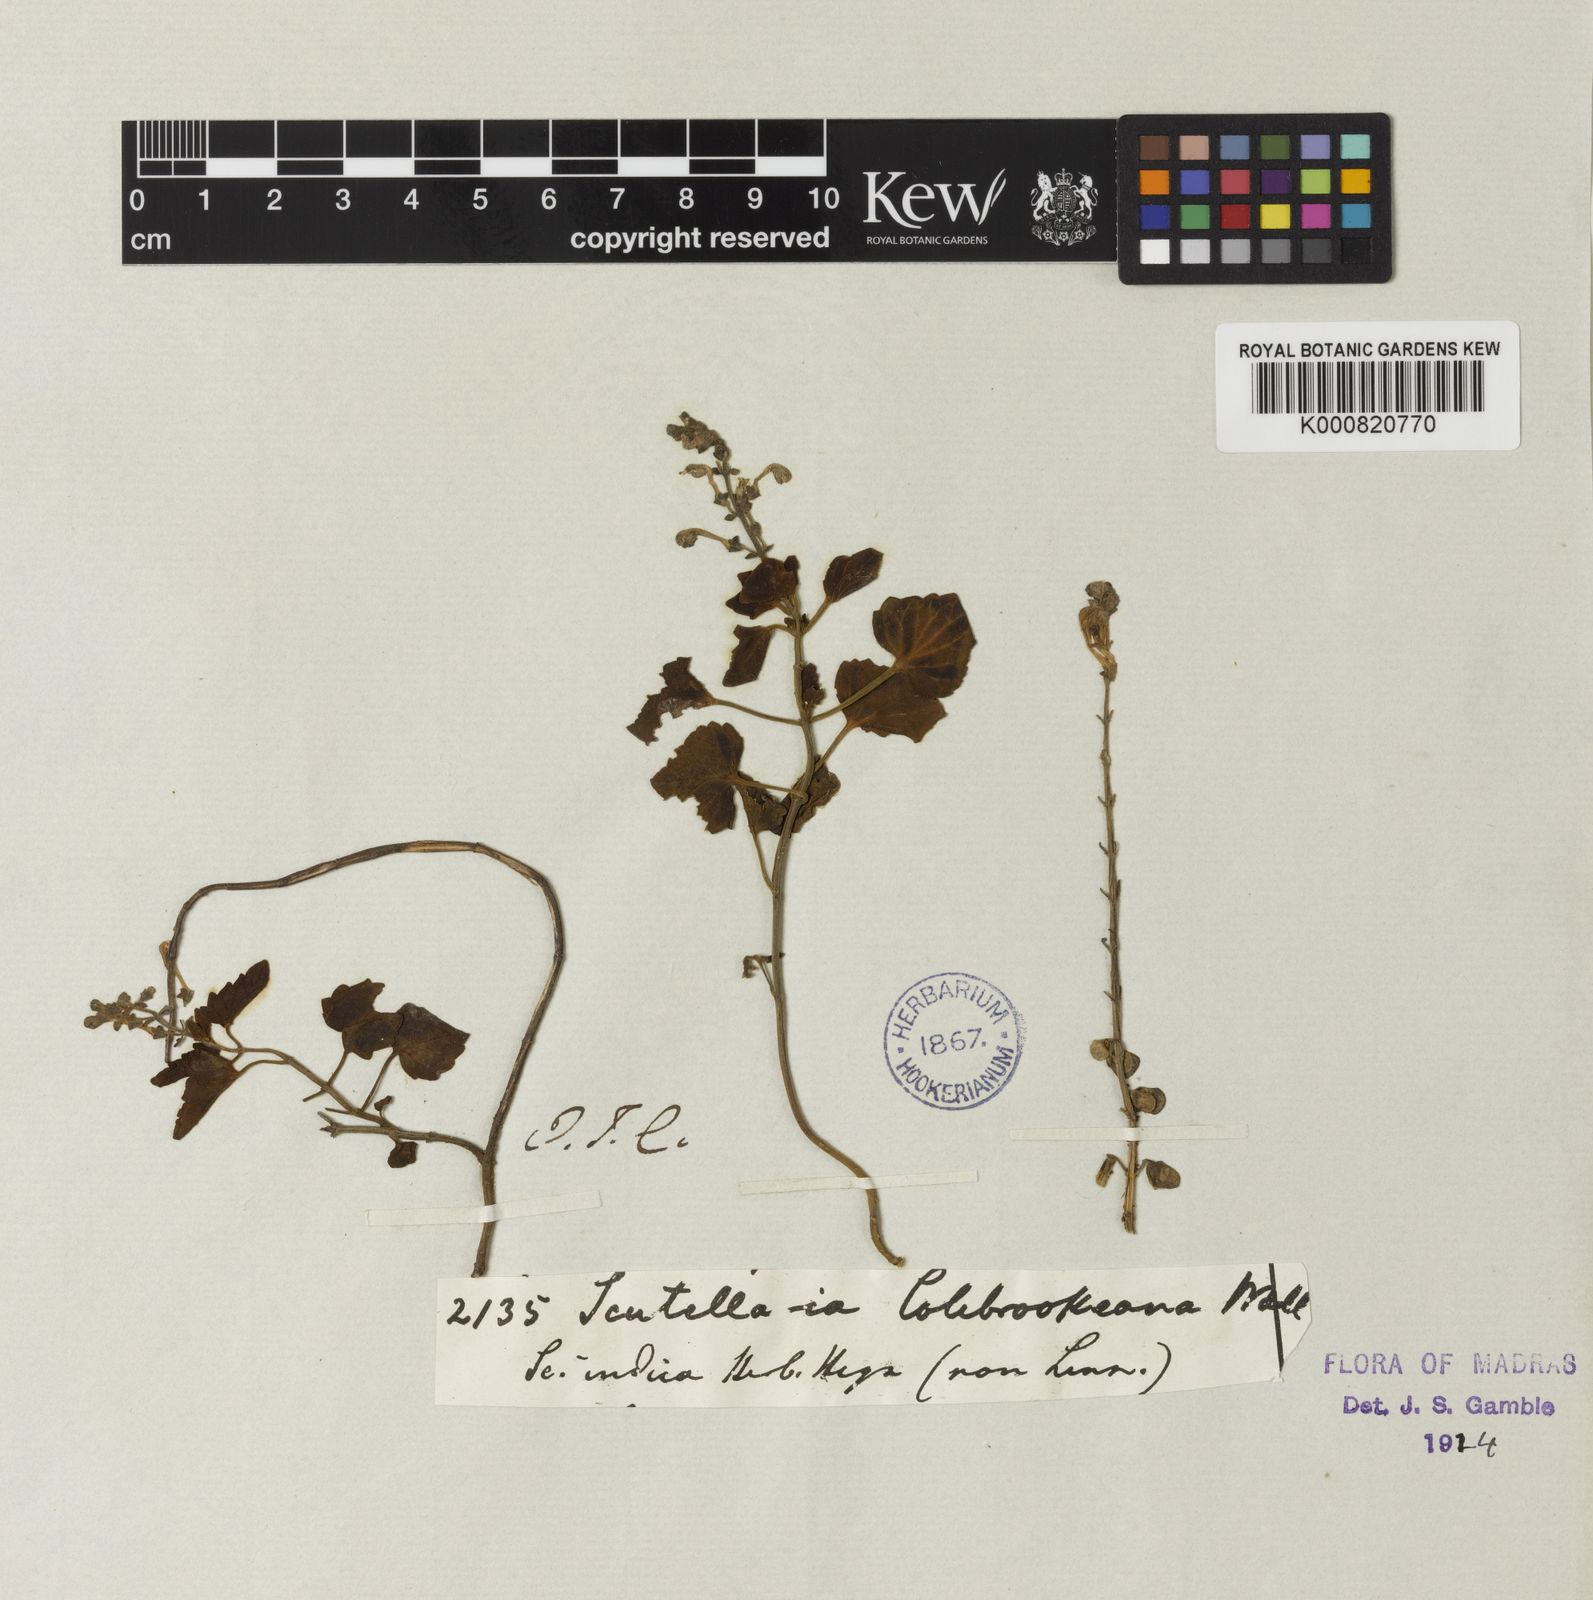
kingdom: Plantae
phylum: Tracheophyta
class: Magnoliopsida
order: Lamiales
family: Lamiaceae
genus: Scutellaria
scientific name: Scutellaria colebrookeana
